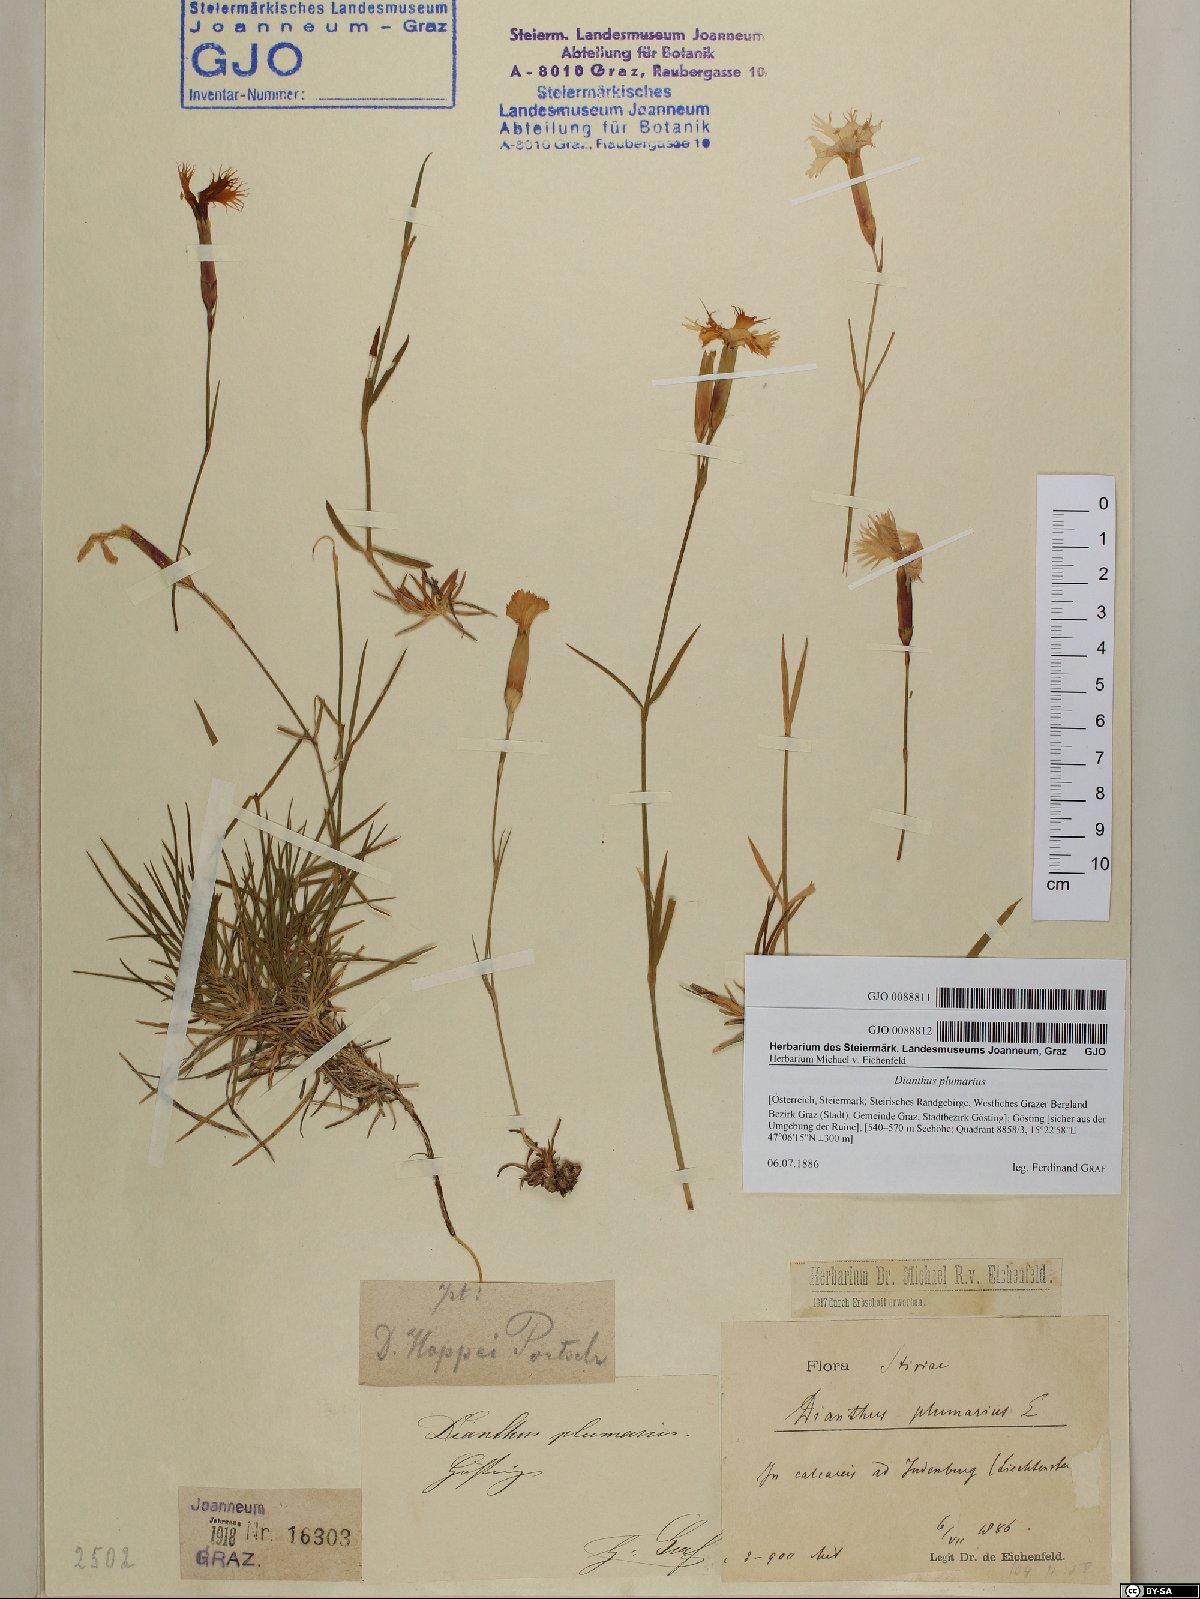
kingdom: Plantae
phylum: Tracheophyta
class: Magnoliopsida
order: Caryophyllales
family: Caryophyllaceae
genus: Dianthus
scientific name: Dianthus plumarius
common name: Pink
